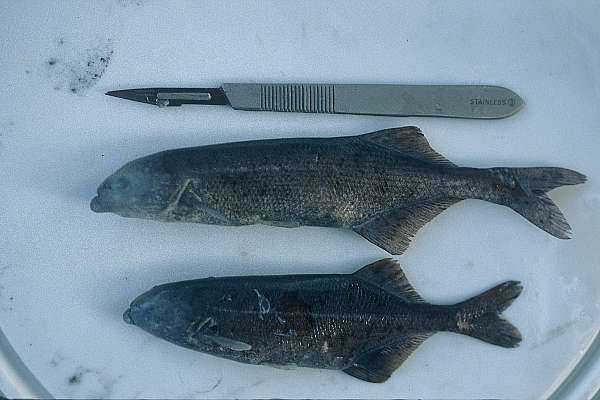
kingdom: Animalia
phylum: Chordata
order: Osteoglossiformes
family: Mormyridae
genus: Marcusenius
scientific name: Marcusenius macrolepidotus
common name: Bulldog
